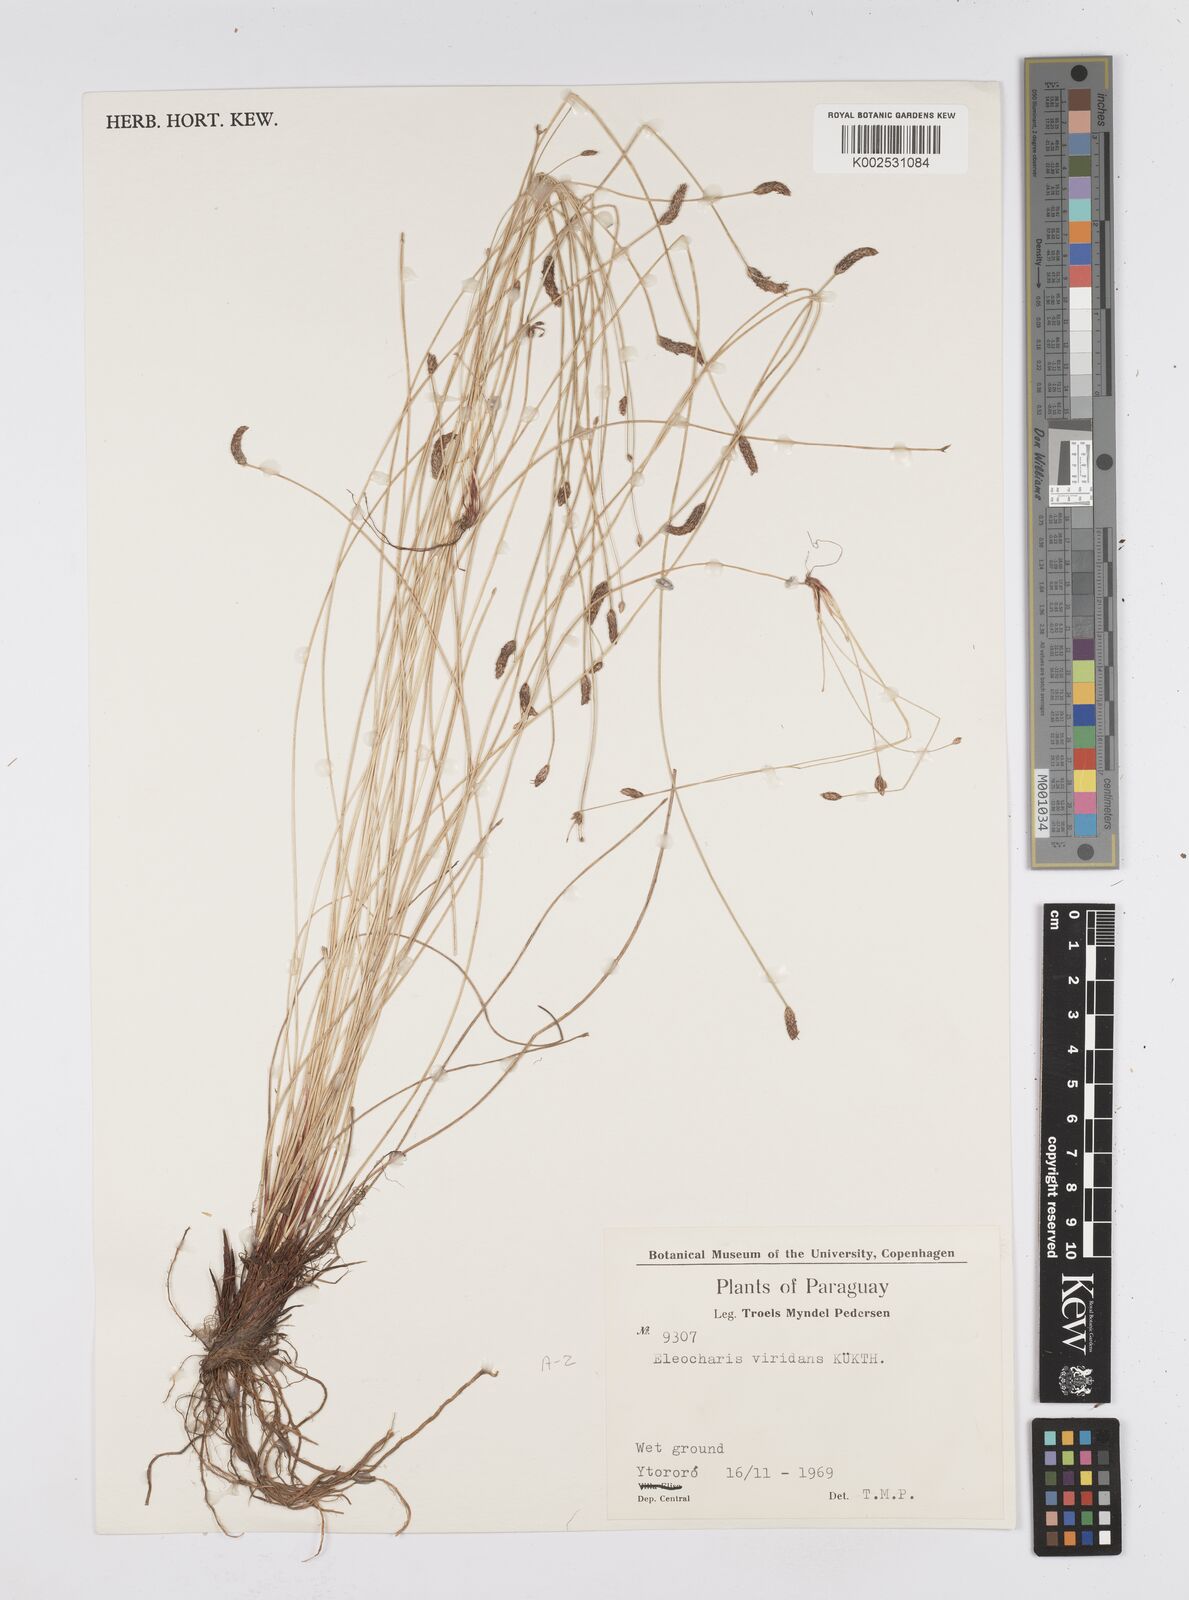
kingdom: Plantae
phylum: Tracheophyta
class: Liliopsida
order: Poales
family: Cyperaceae
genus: Eleocharis
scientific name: Eleocharis viridans
